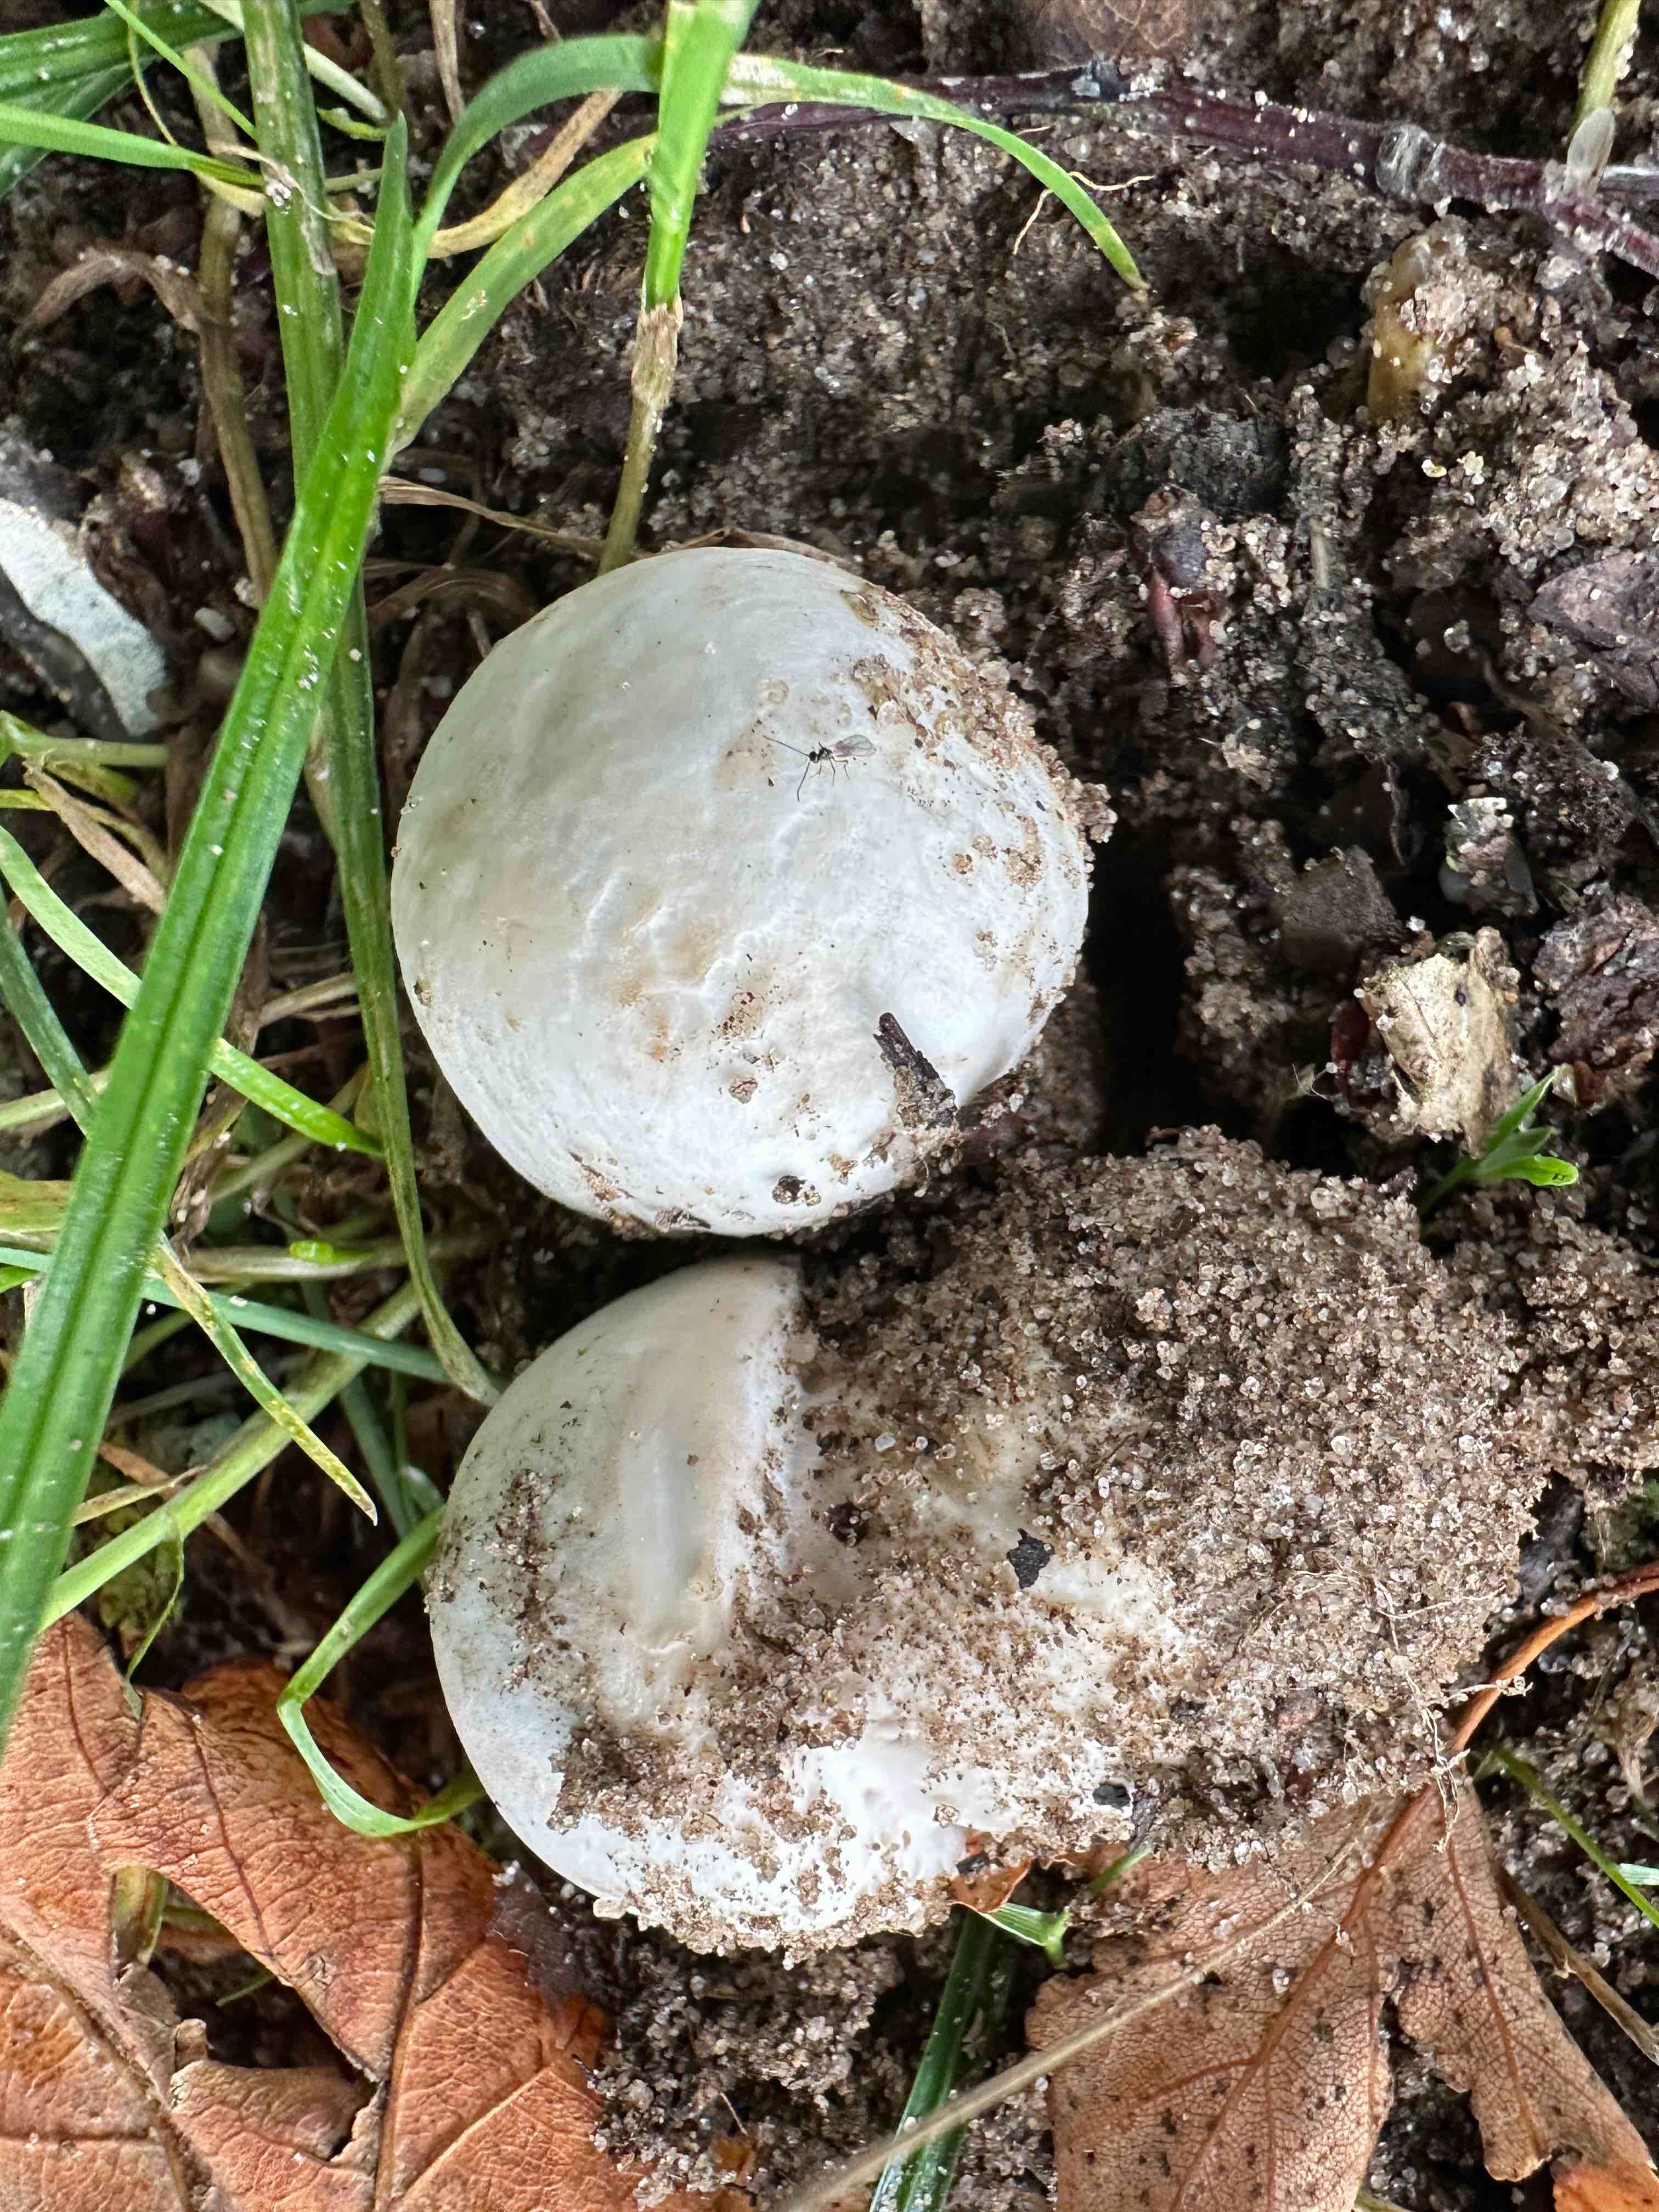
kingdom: Fungi
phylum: Basidiomycota
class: Agaricomycetes
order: Agaricales
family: Agaricaceae
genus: Agaricus
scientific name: Agaricus campestris
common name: mark-champignon
